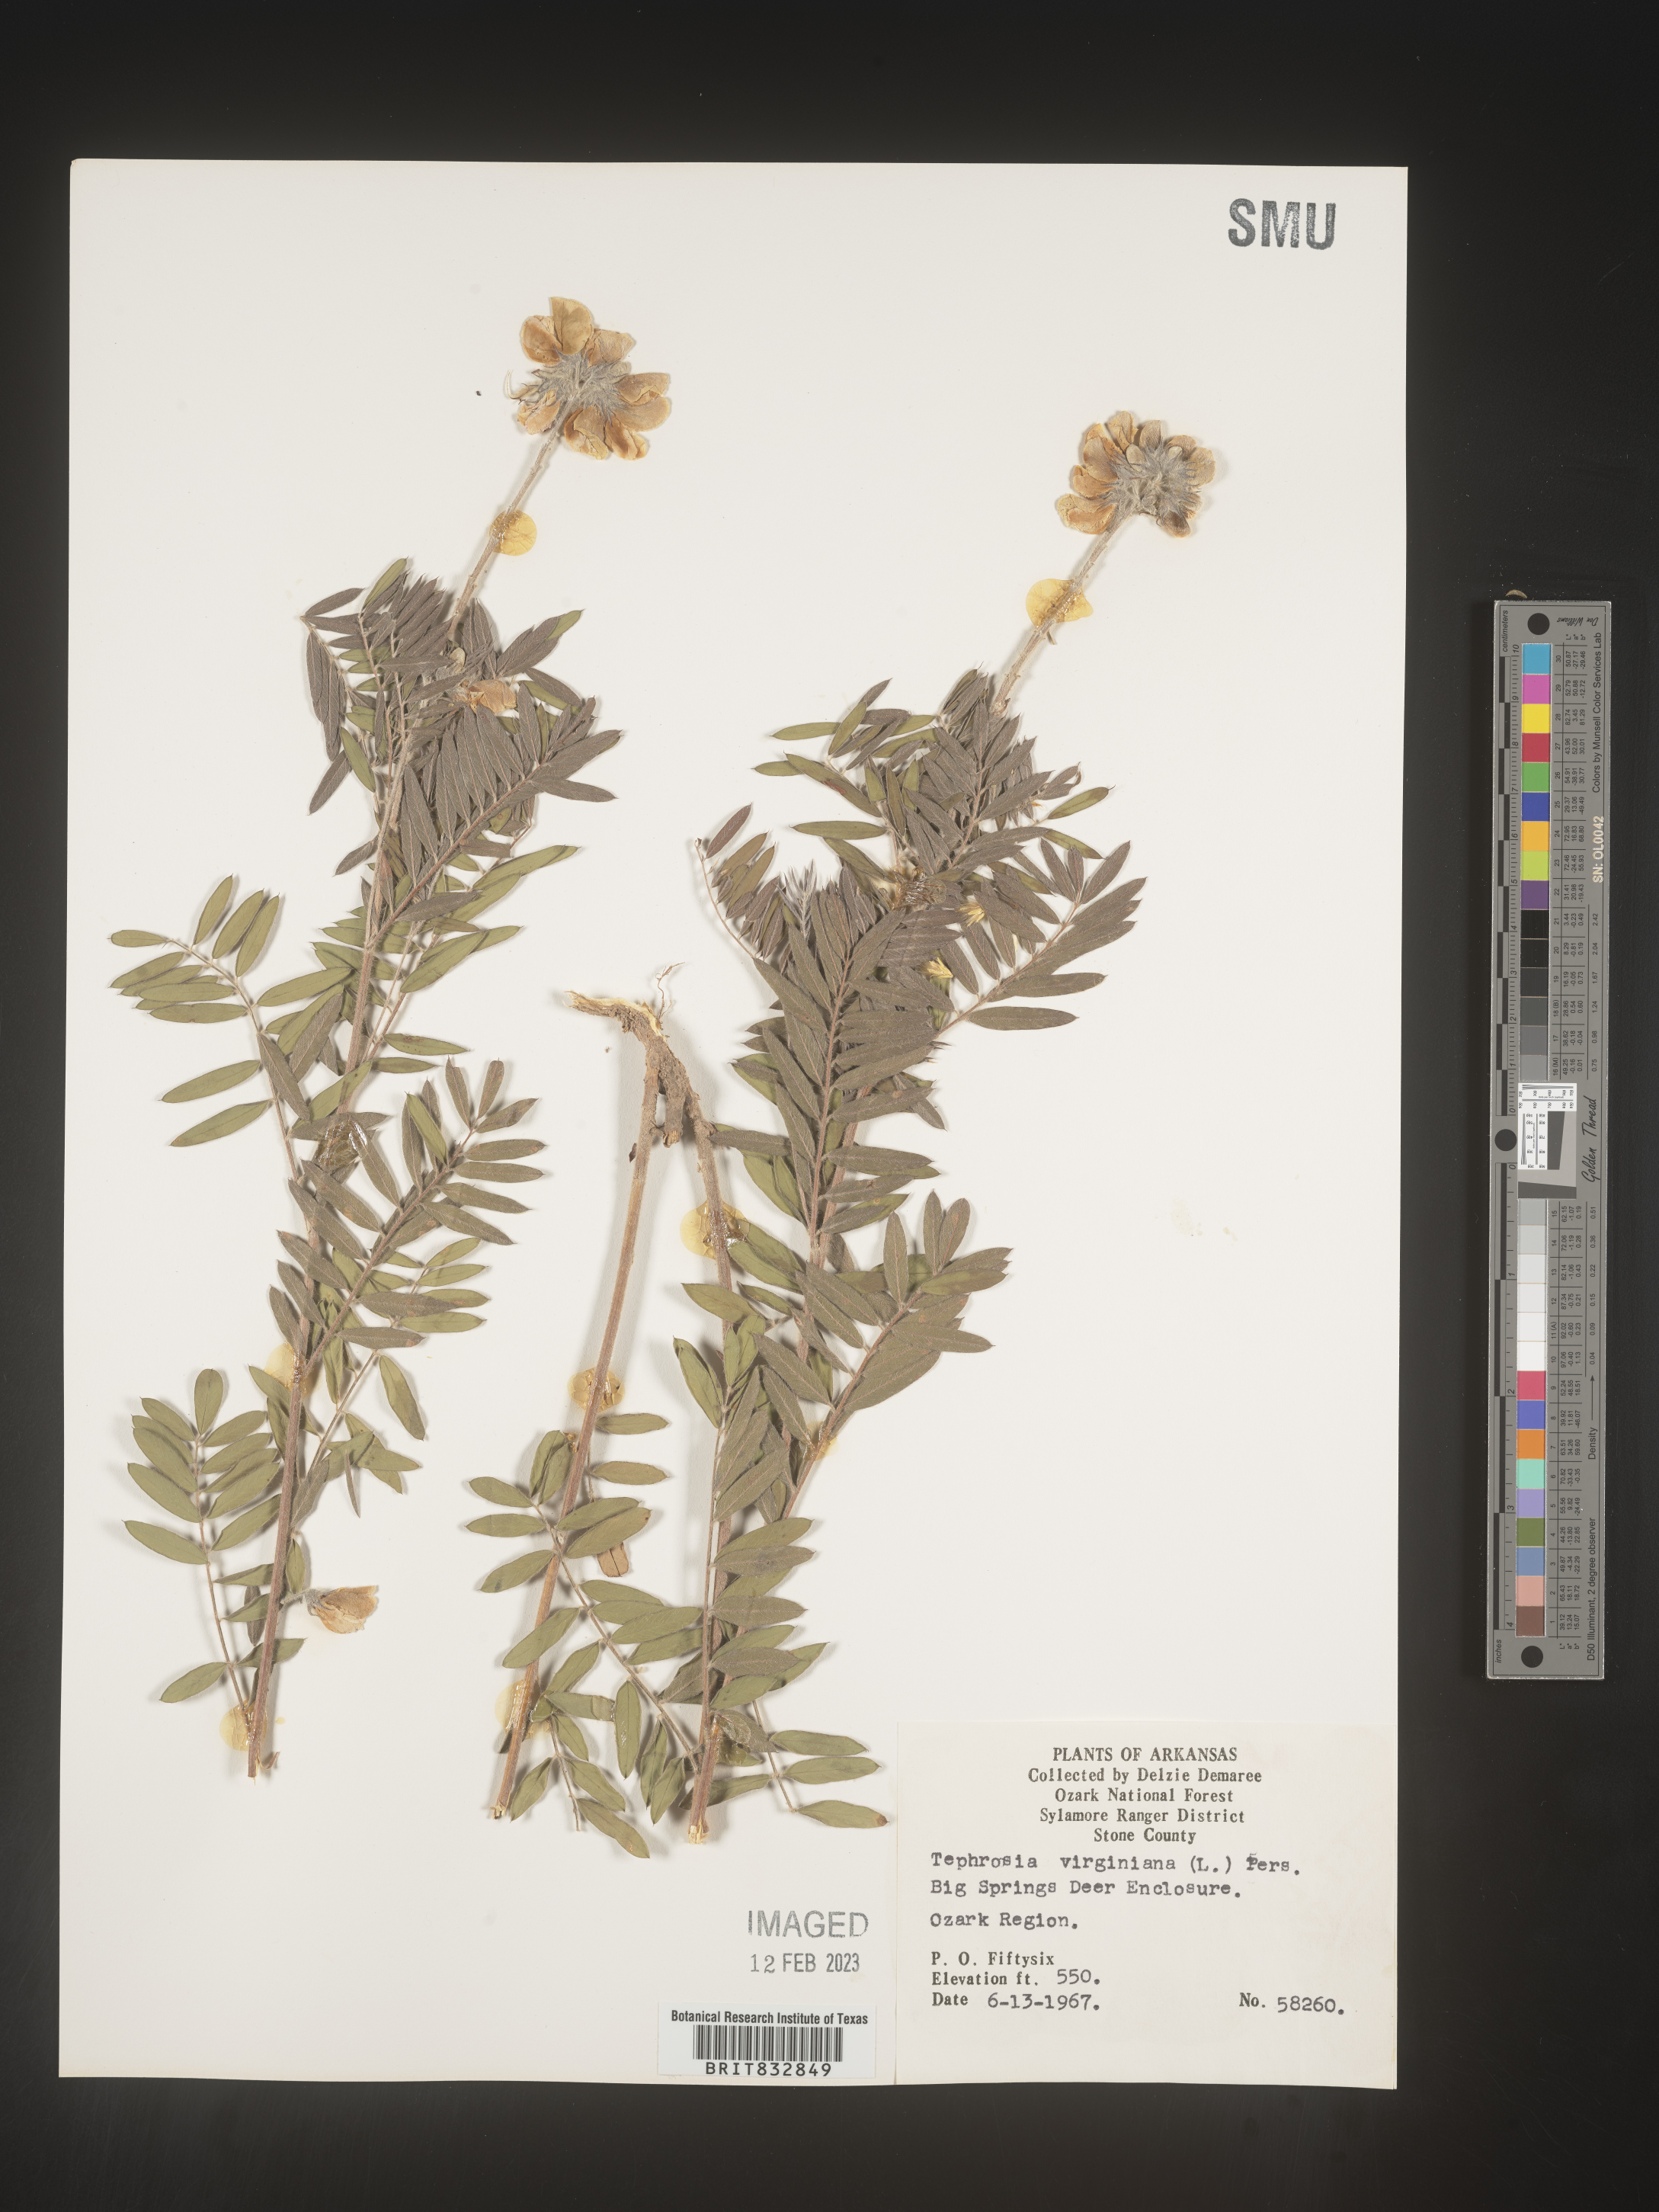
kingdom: Plantae
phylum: Tracheophyta
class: Magnoliopsida
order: Fabales
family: Fabaceae
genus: Tephrosia
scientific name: Tephrosia virginiana
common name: Rabbit-pea
